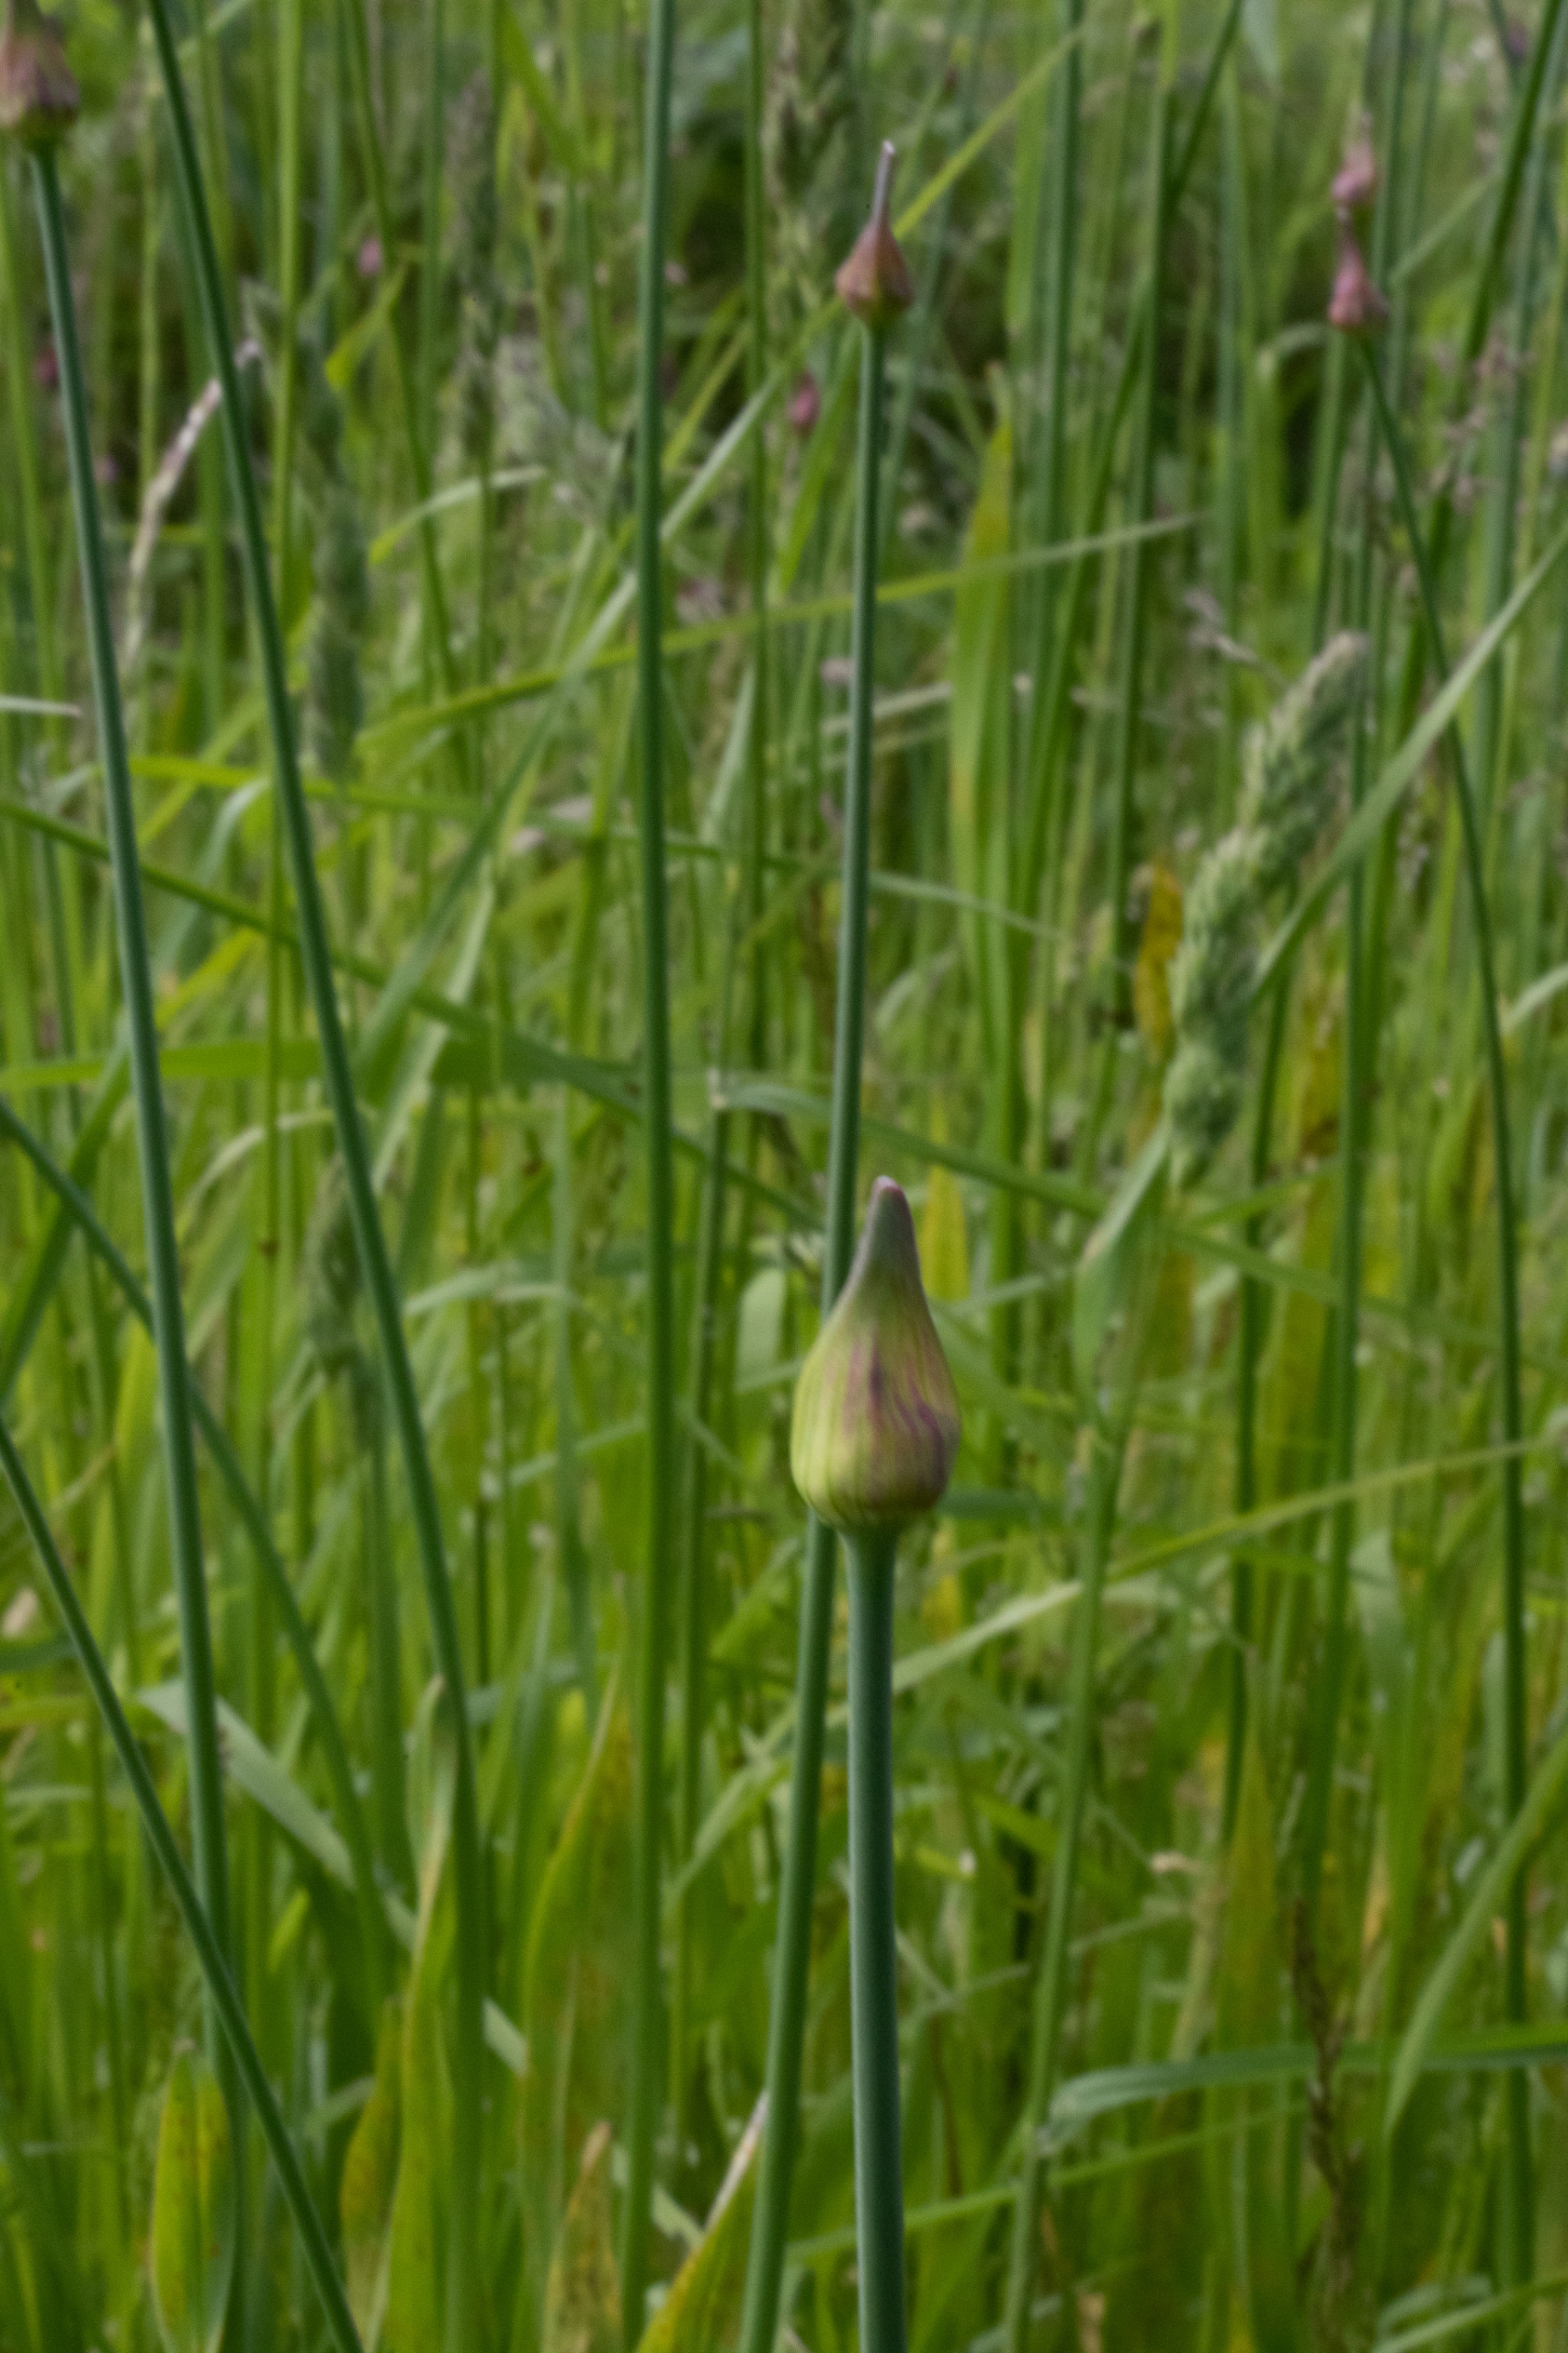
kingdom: Plantae
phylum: Tracheophyta
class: Liliopsida
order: Asparagales
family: Amaryllidaceae
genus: Allium
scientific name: Allium scorodoprasum
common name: Skov-løg
